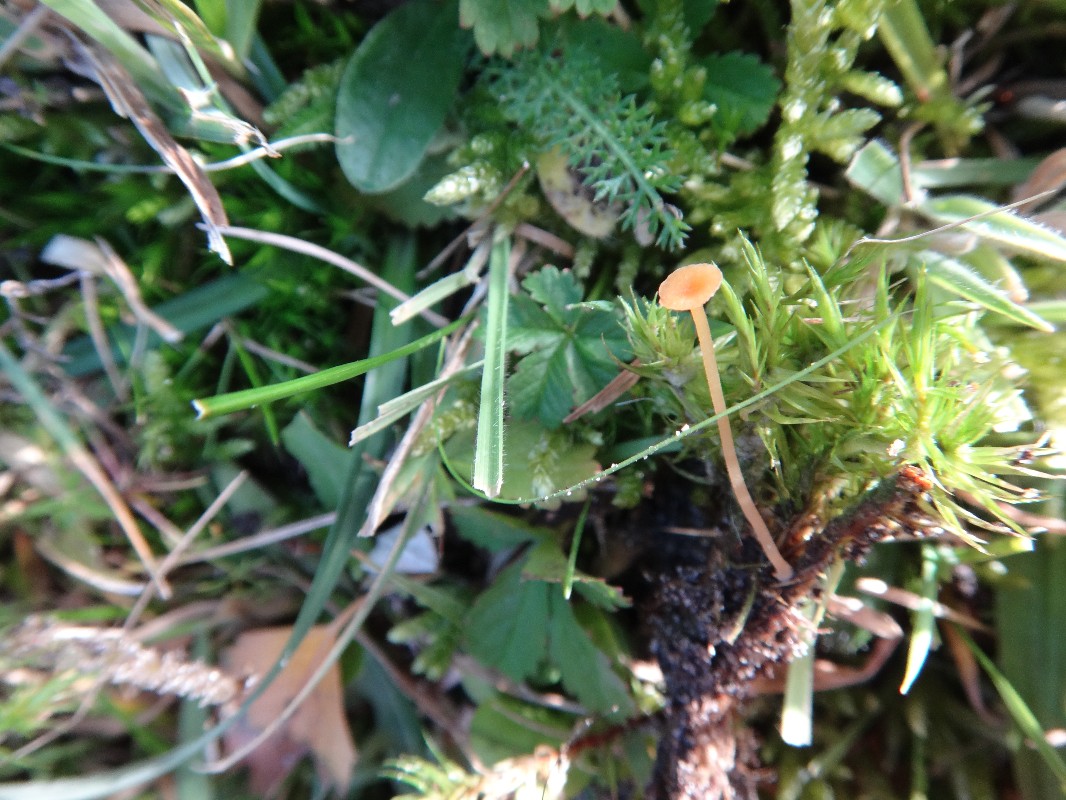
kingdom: Fungi
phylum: Basidiomycota
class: Agaricomycetes
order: Hymenochaetales
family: Rickenellaceae
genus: Rickenella
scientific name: Rickenella fibula
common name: orange mosnavlehat
